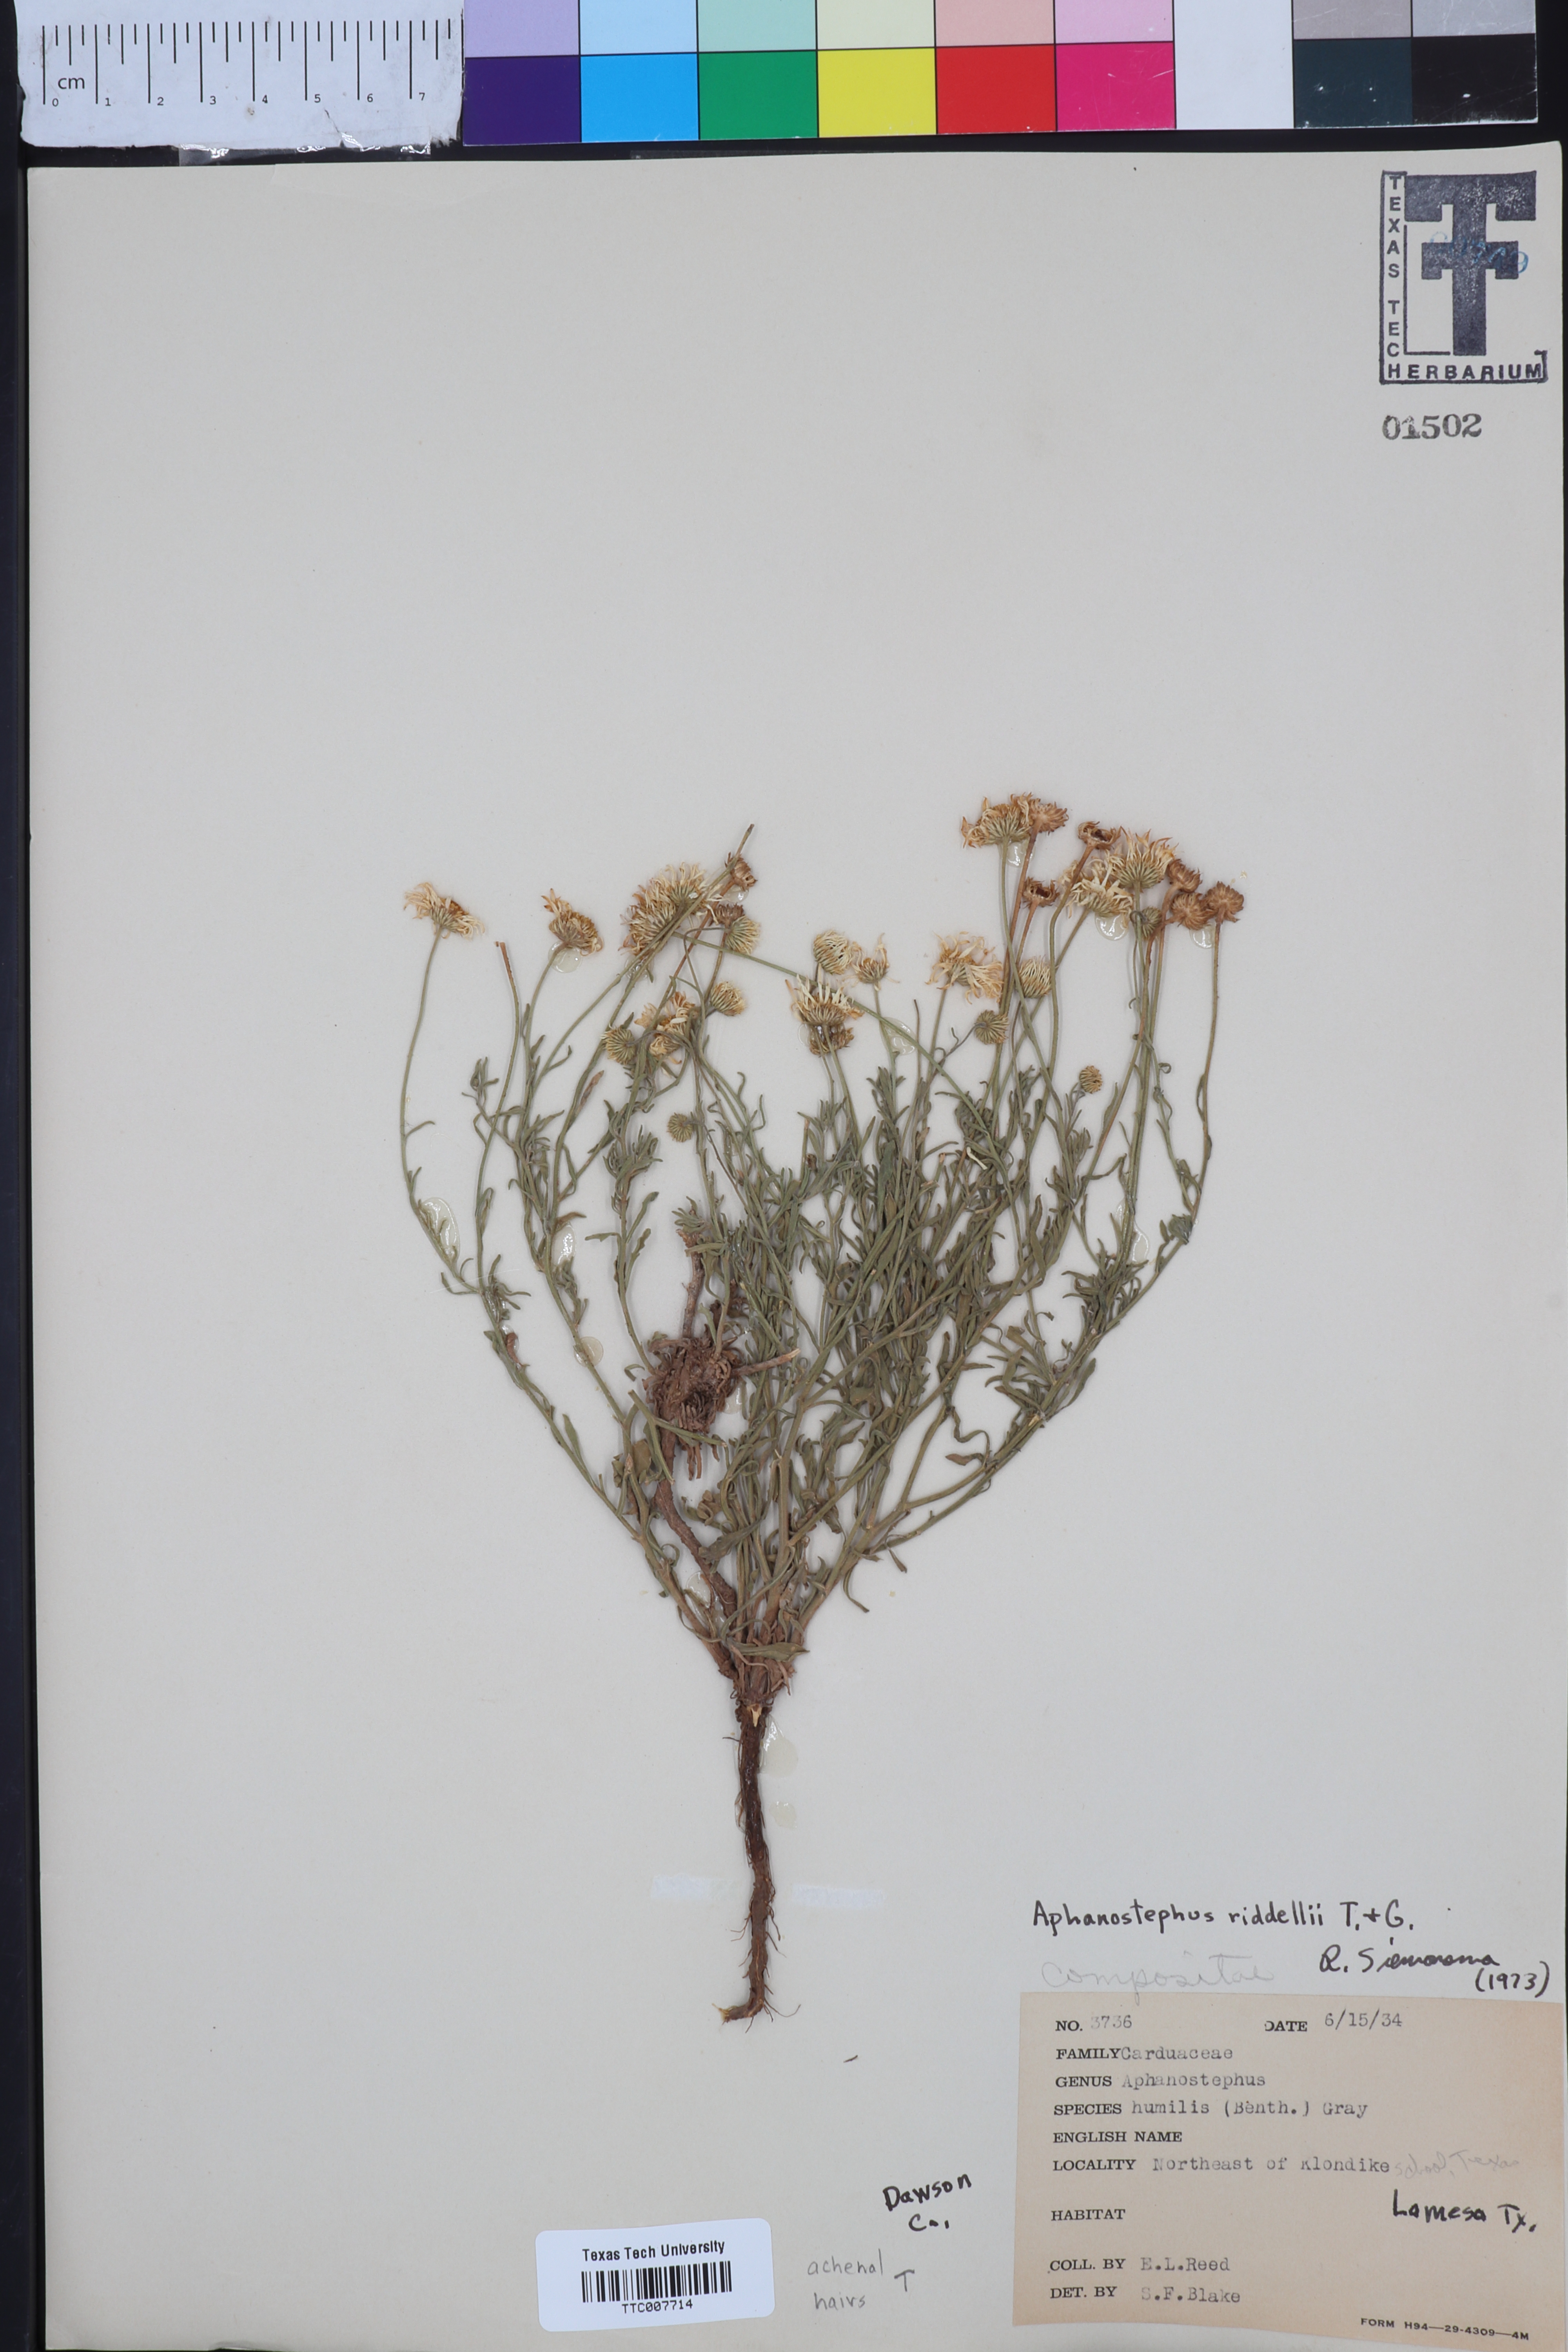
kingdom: Plantae
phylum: Tracheophyta
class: Magnoliopsida
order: Asterales
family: Asteraceae
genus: Aphanostephus
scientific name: Aphanostephus riddellii
